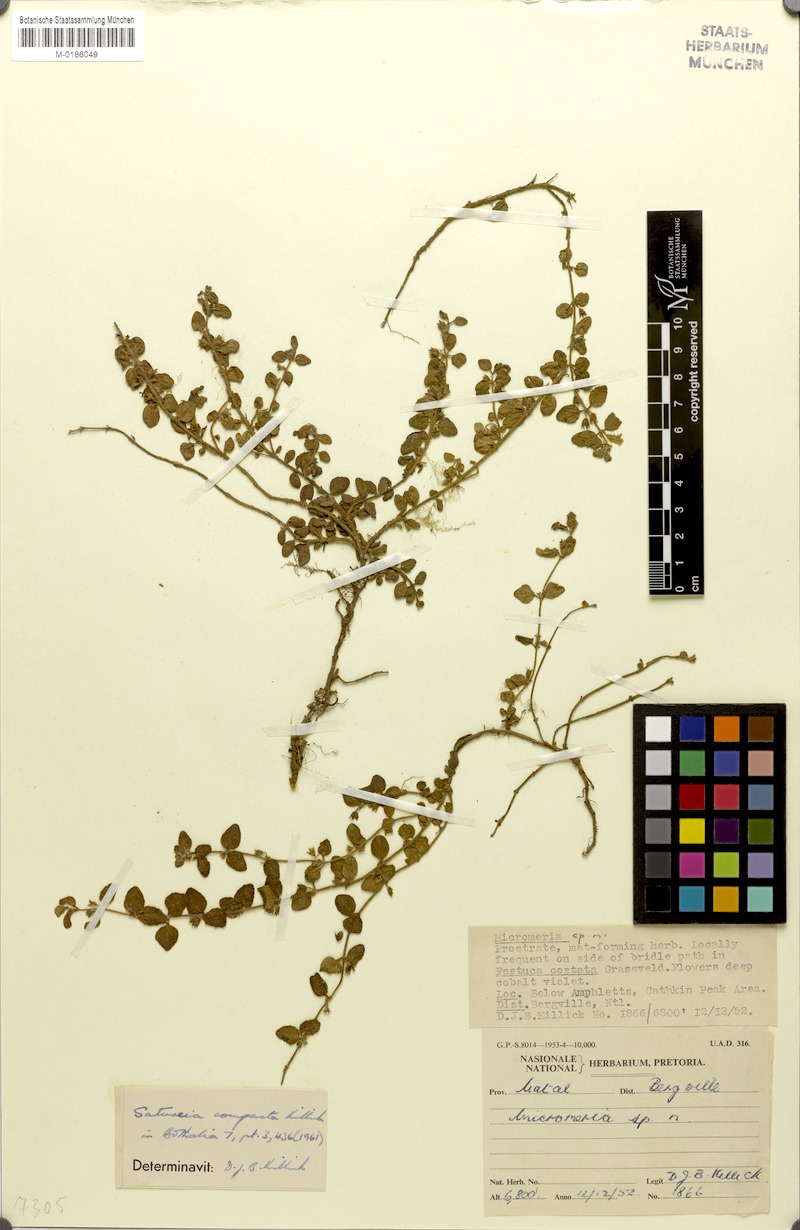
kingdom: Plantae
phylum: Tracheophyta
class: Magnoliopsida
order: Lamiales
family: Lamiaceae
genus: Killickia
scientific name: Killickia compacta
